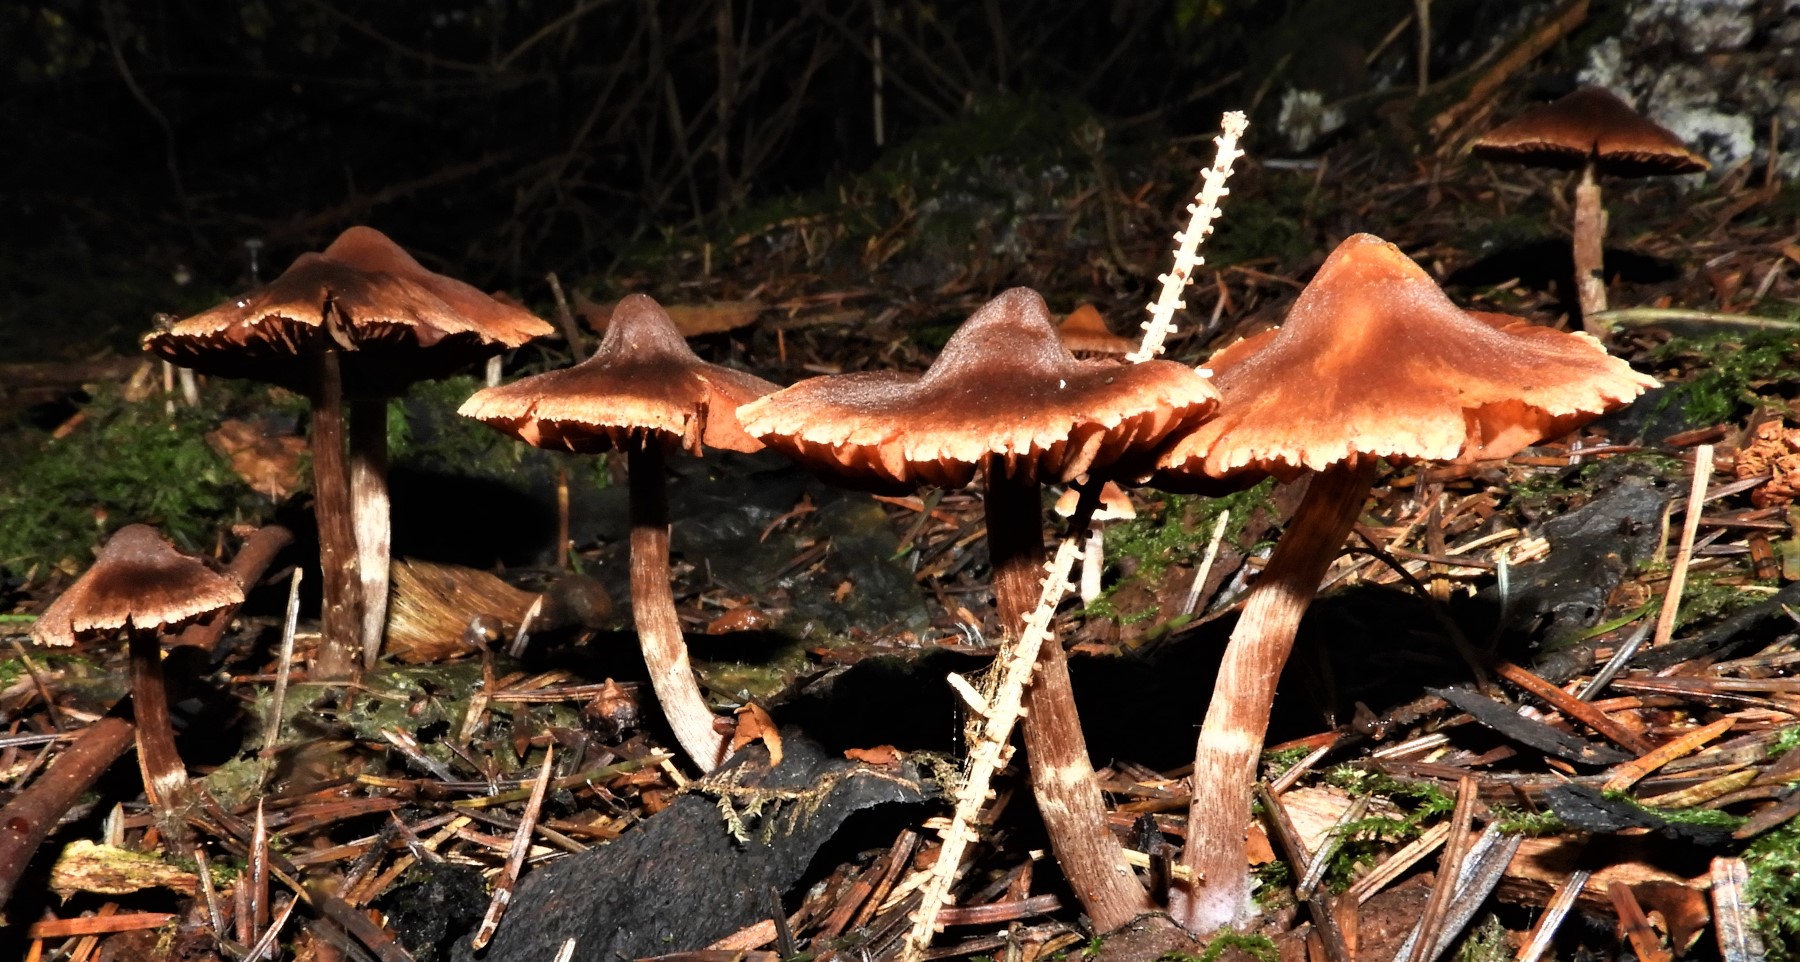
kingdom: Fungi
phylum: Basidiomycota
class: Agaricomycetes
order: Agaricales
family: Cortinariaceae
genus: Cortinarius
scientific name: Cortinarius
